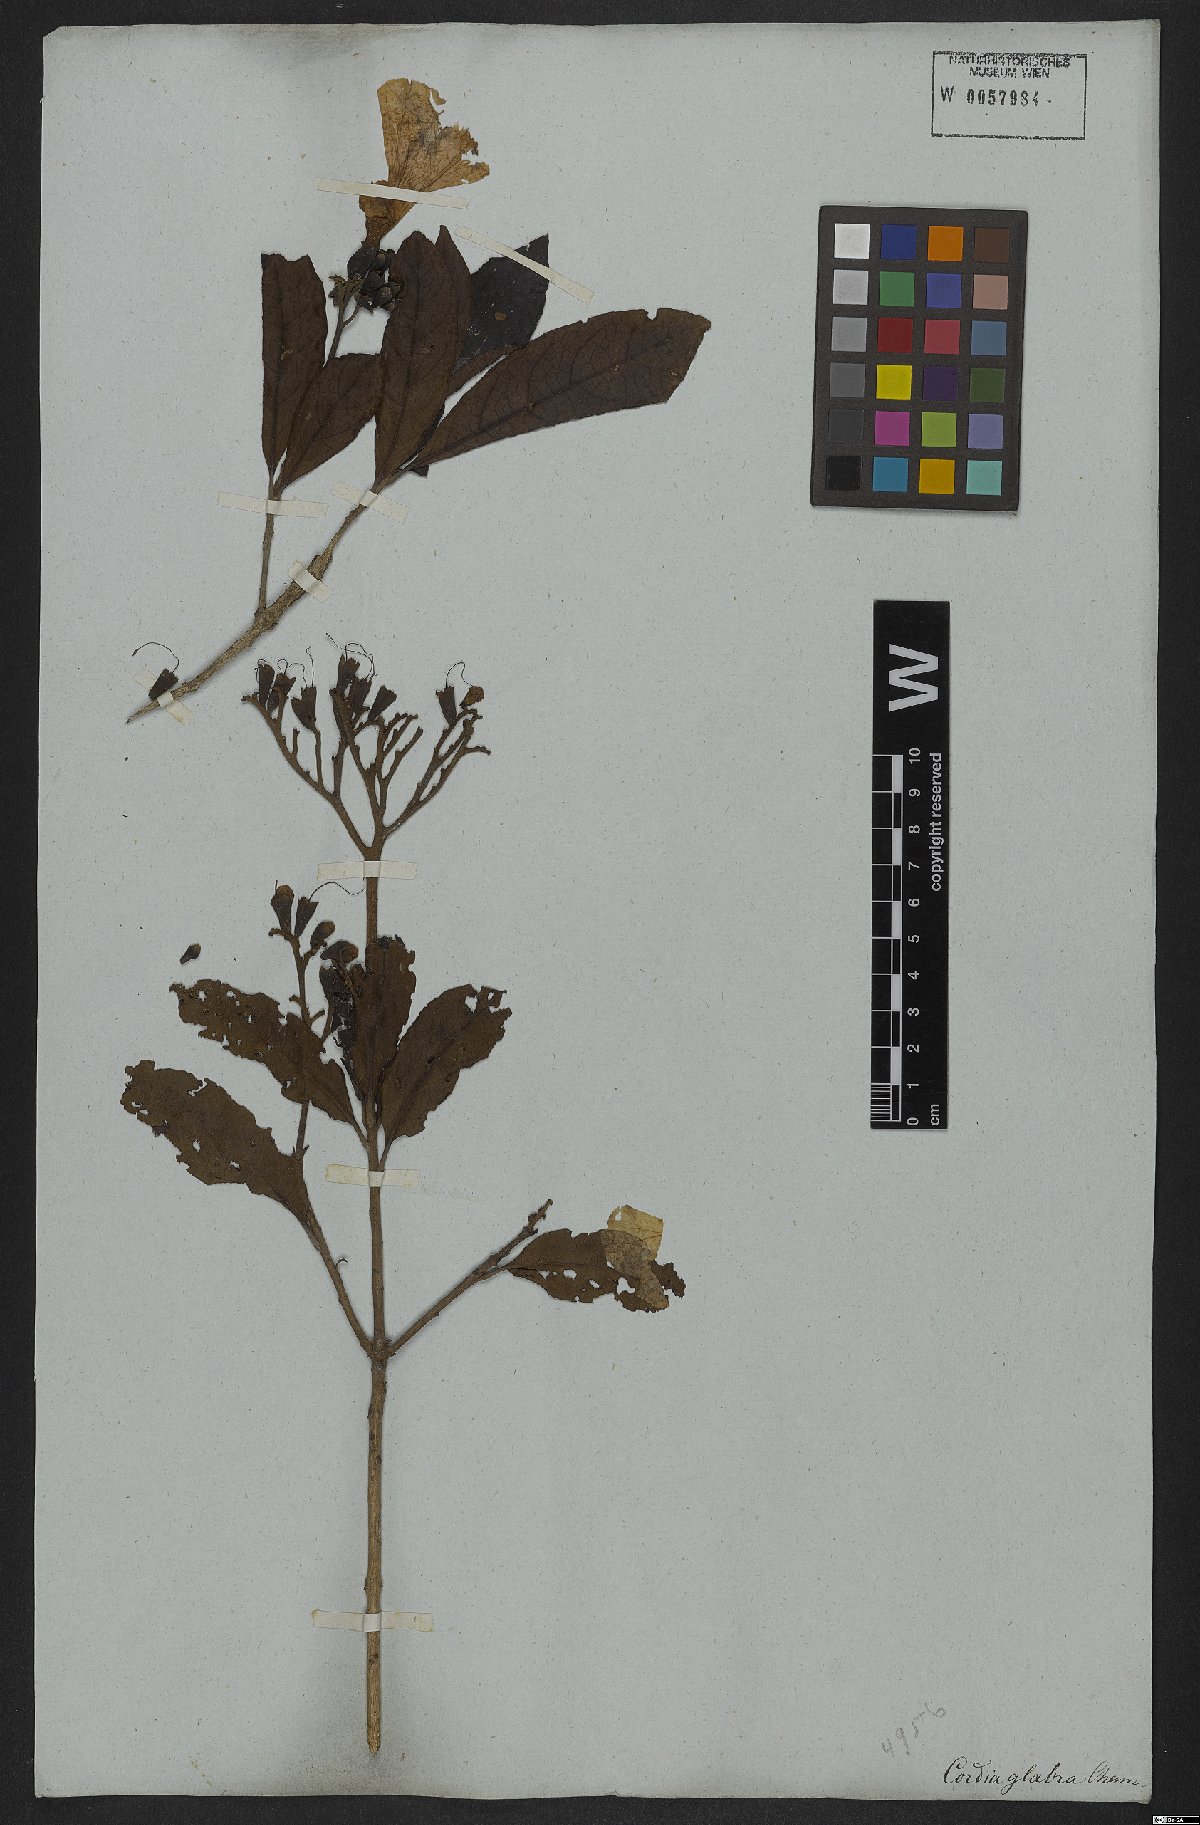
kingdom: Plantae
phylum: Tracheophyta
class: Magnoliopsida
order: Boraginales
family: Cordiaceae
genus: Cordia
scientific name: Cordia glabra
